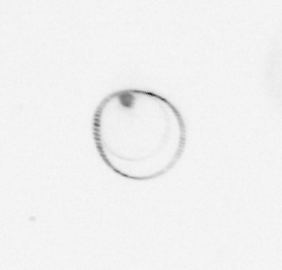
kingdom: Chromista
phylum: Myzozoa
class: Dinophyceae
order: Noctilucales
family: Noctilucaceae
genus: Noctiluca
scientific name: Noctiluca scintillans
